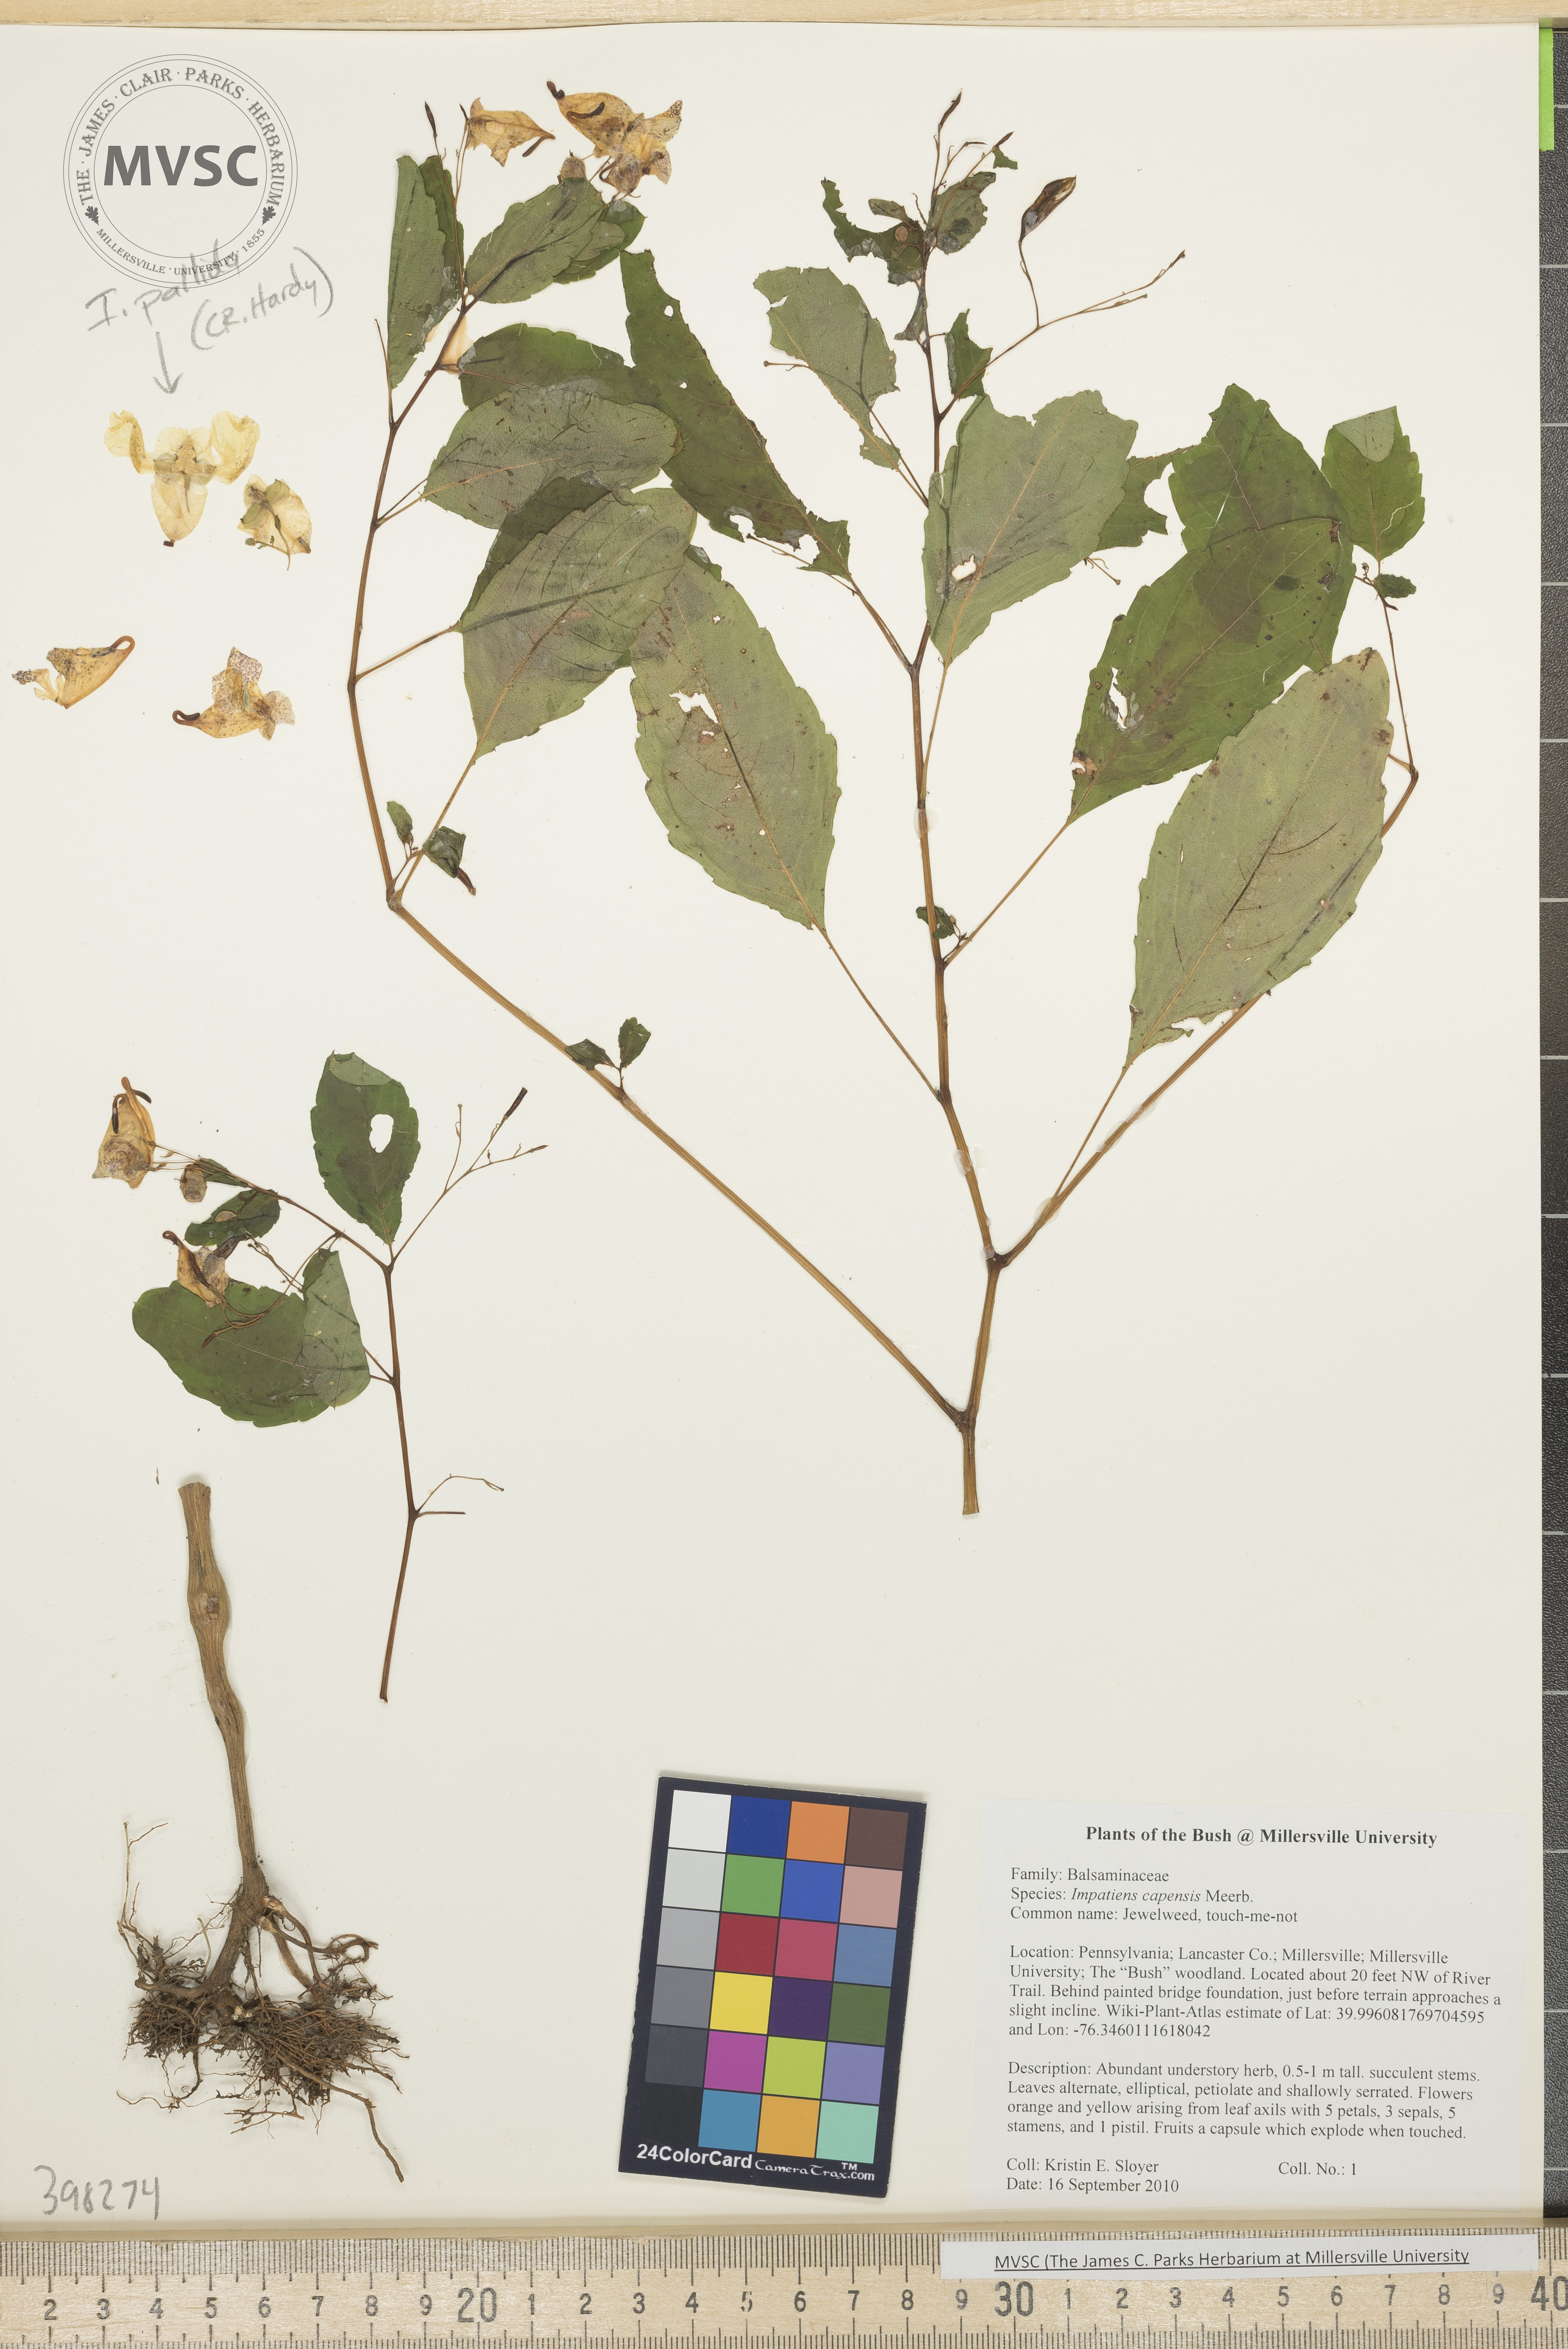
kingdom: Plantae
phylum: Tracheophyta
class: Magnoliopsida
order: Ericales
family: Balsaminaceae
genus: Impatiens
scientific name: Impatiens capensis
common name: Jewelweed
